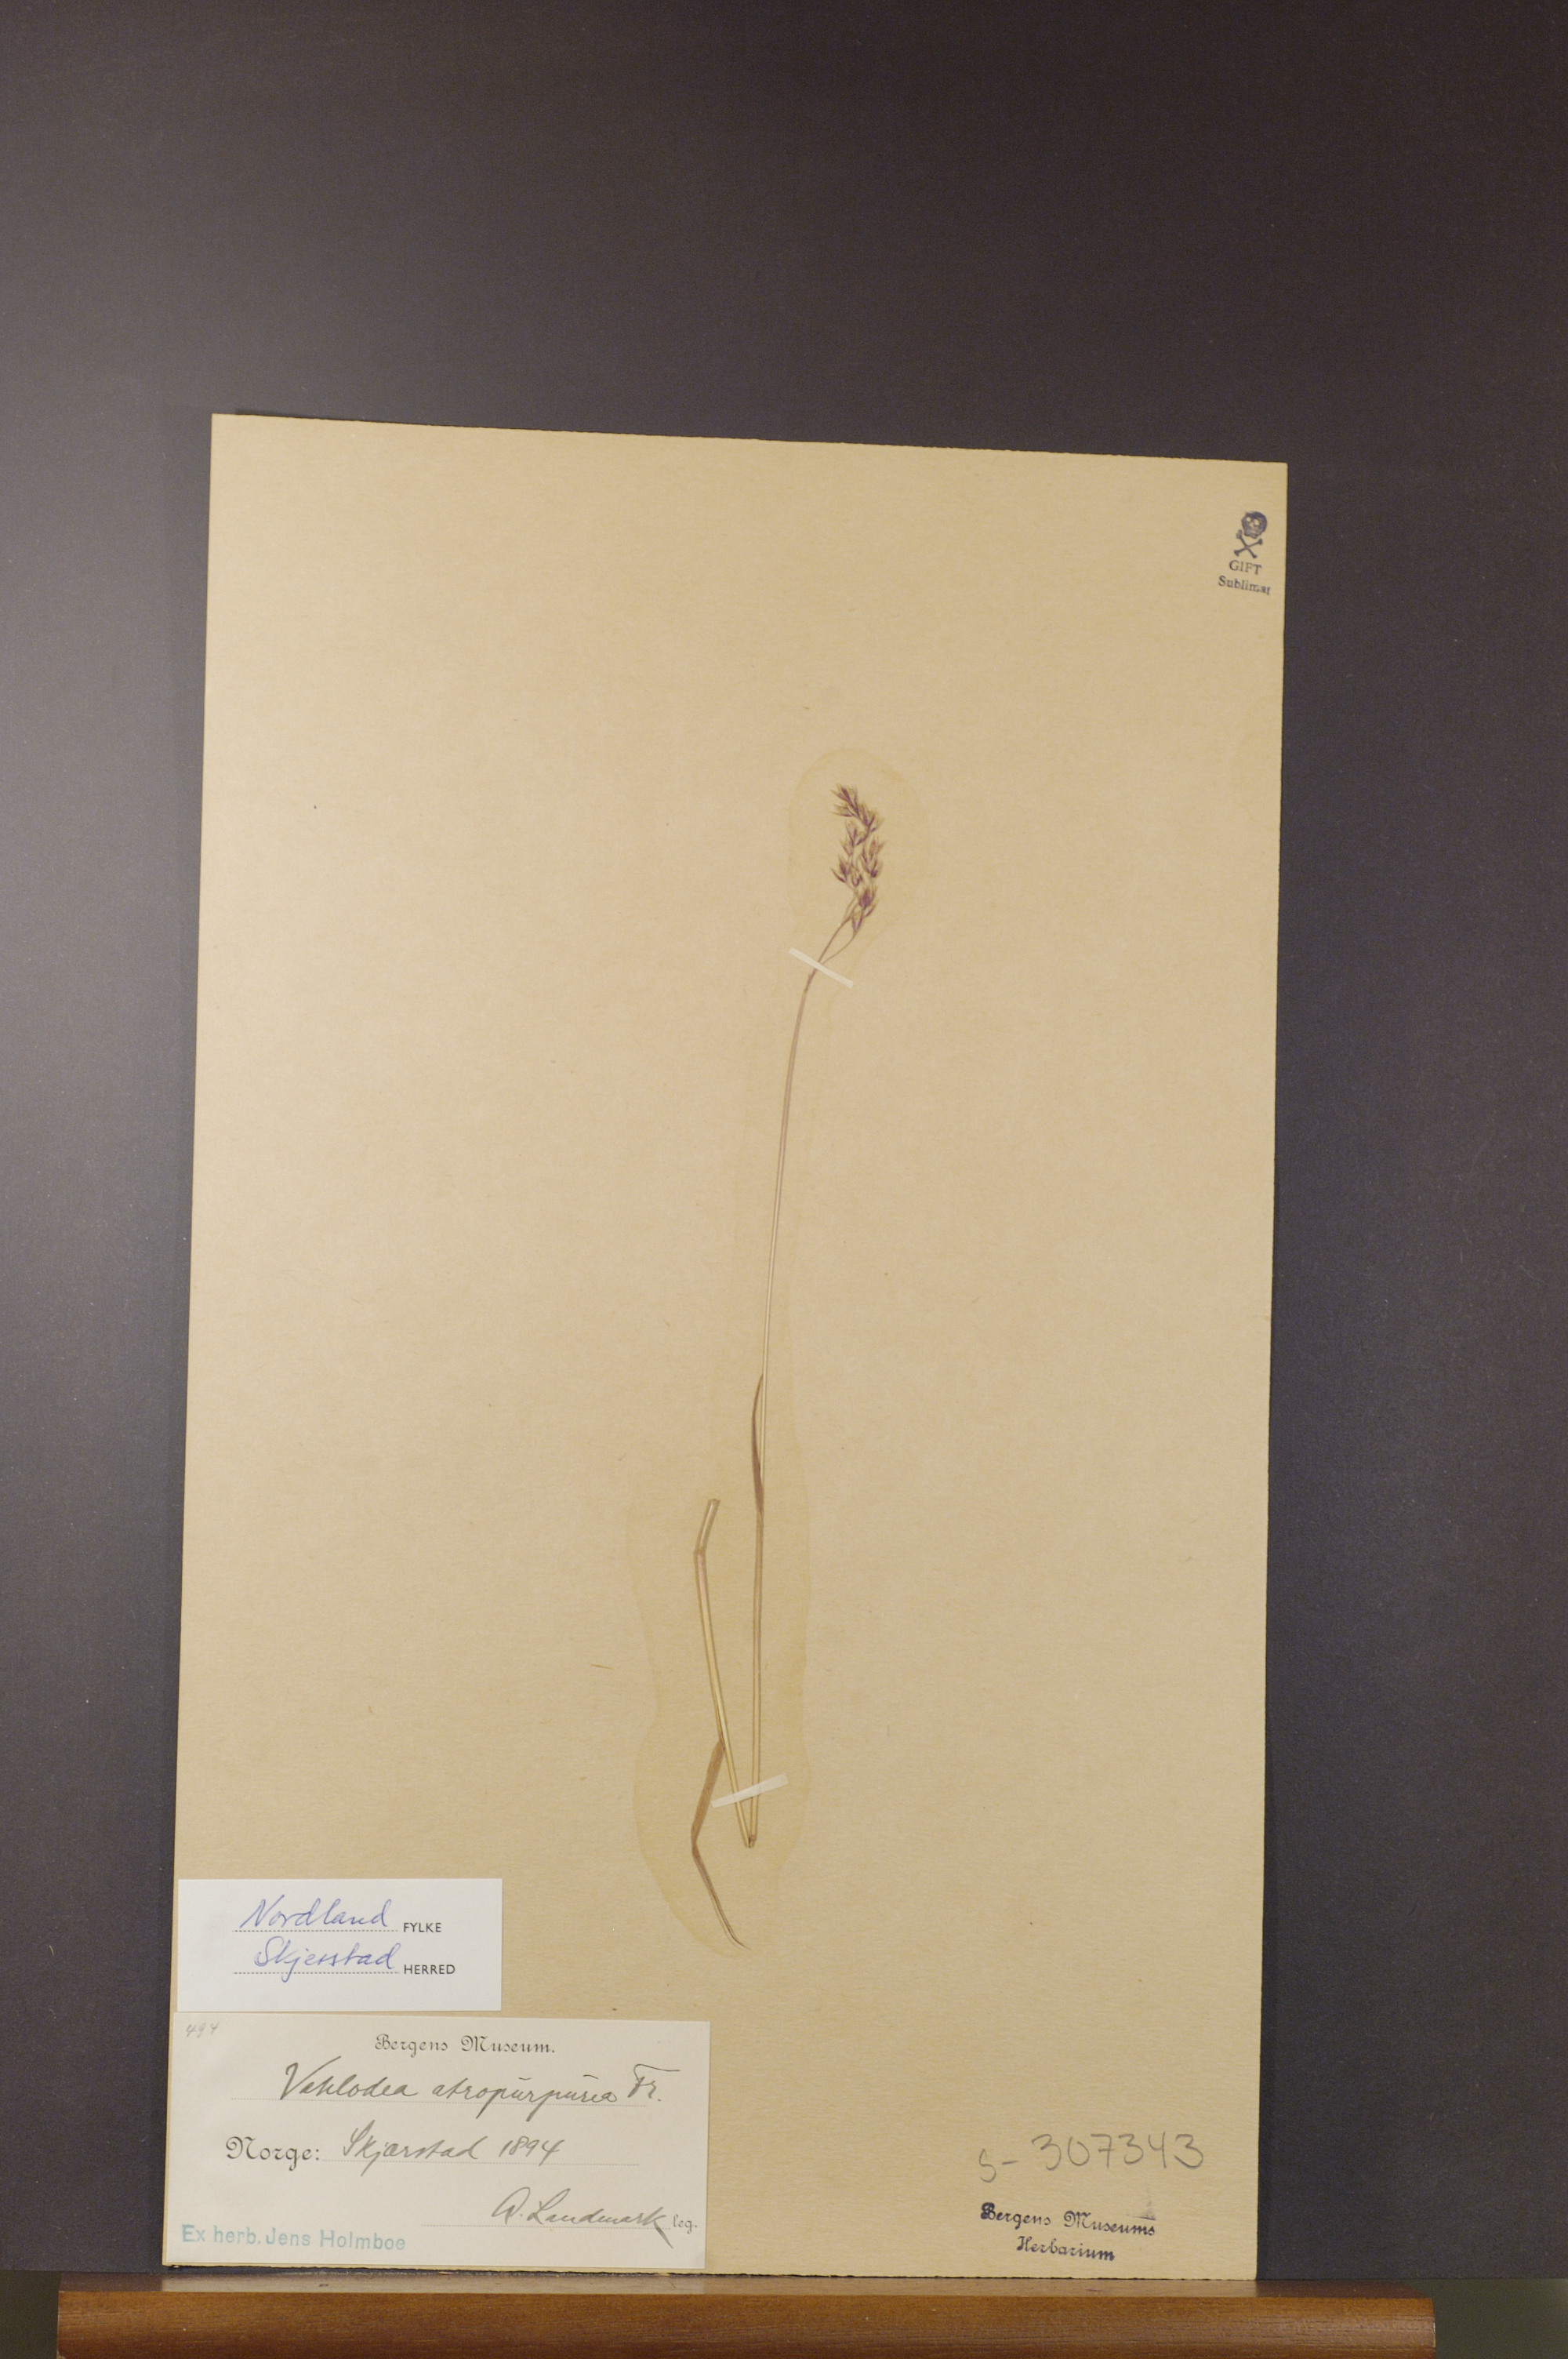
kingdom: Plantae
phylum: Tracheophyta
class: Liliopsida
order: Poales
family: Poaceae
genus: Vahlodea
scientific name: Vahlodea atropurpurea
